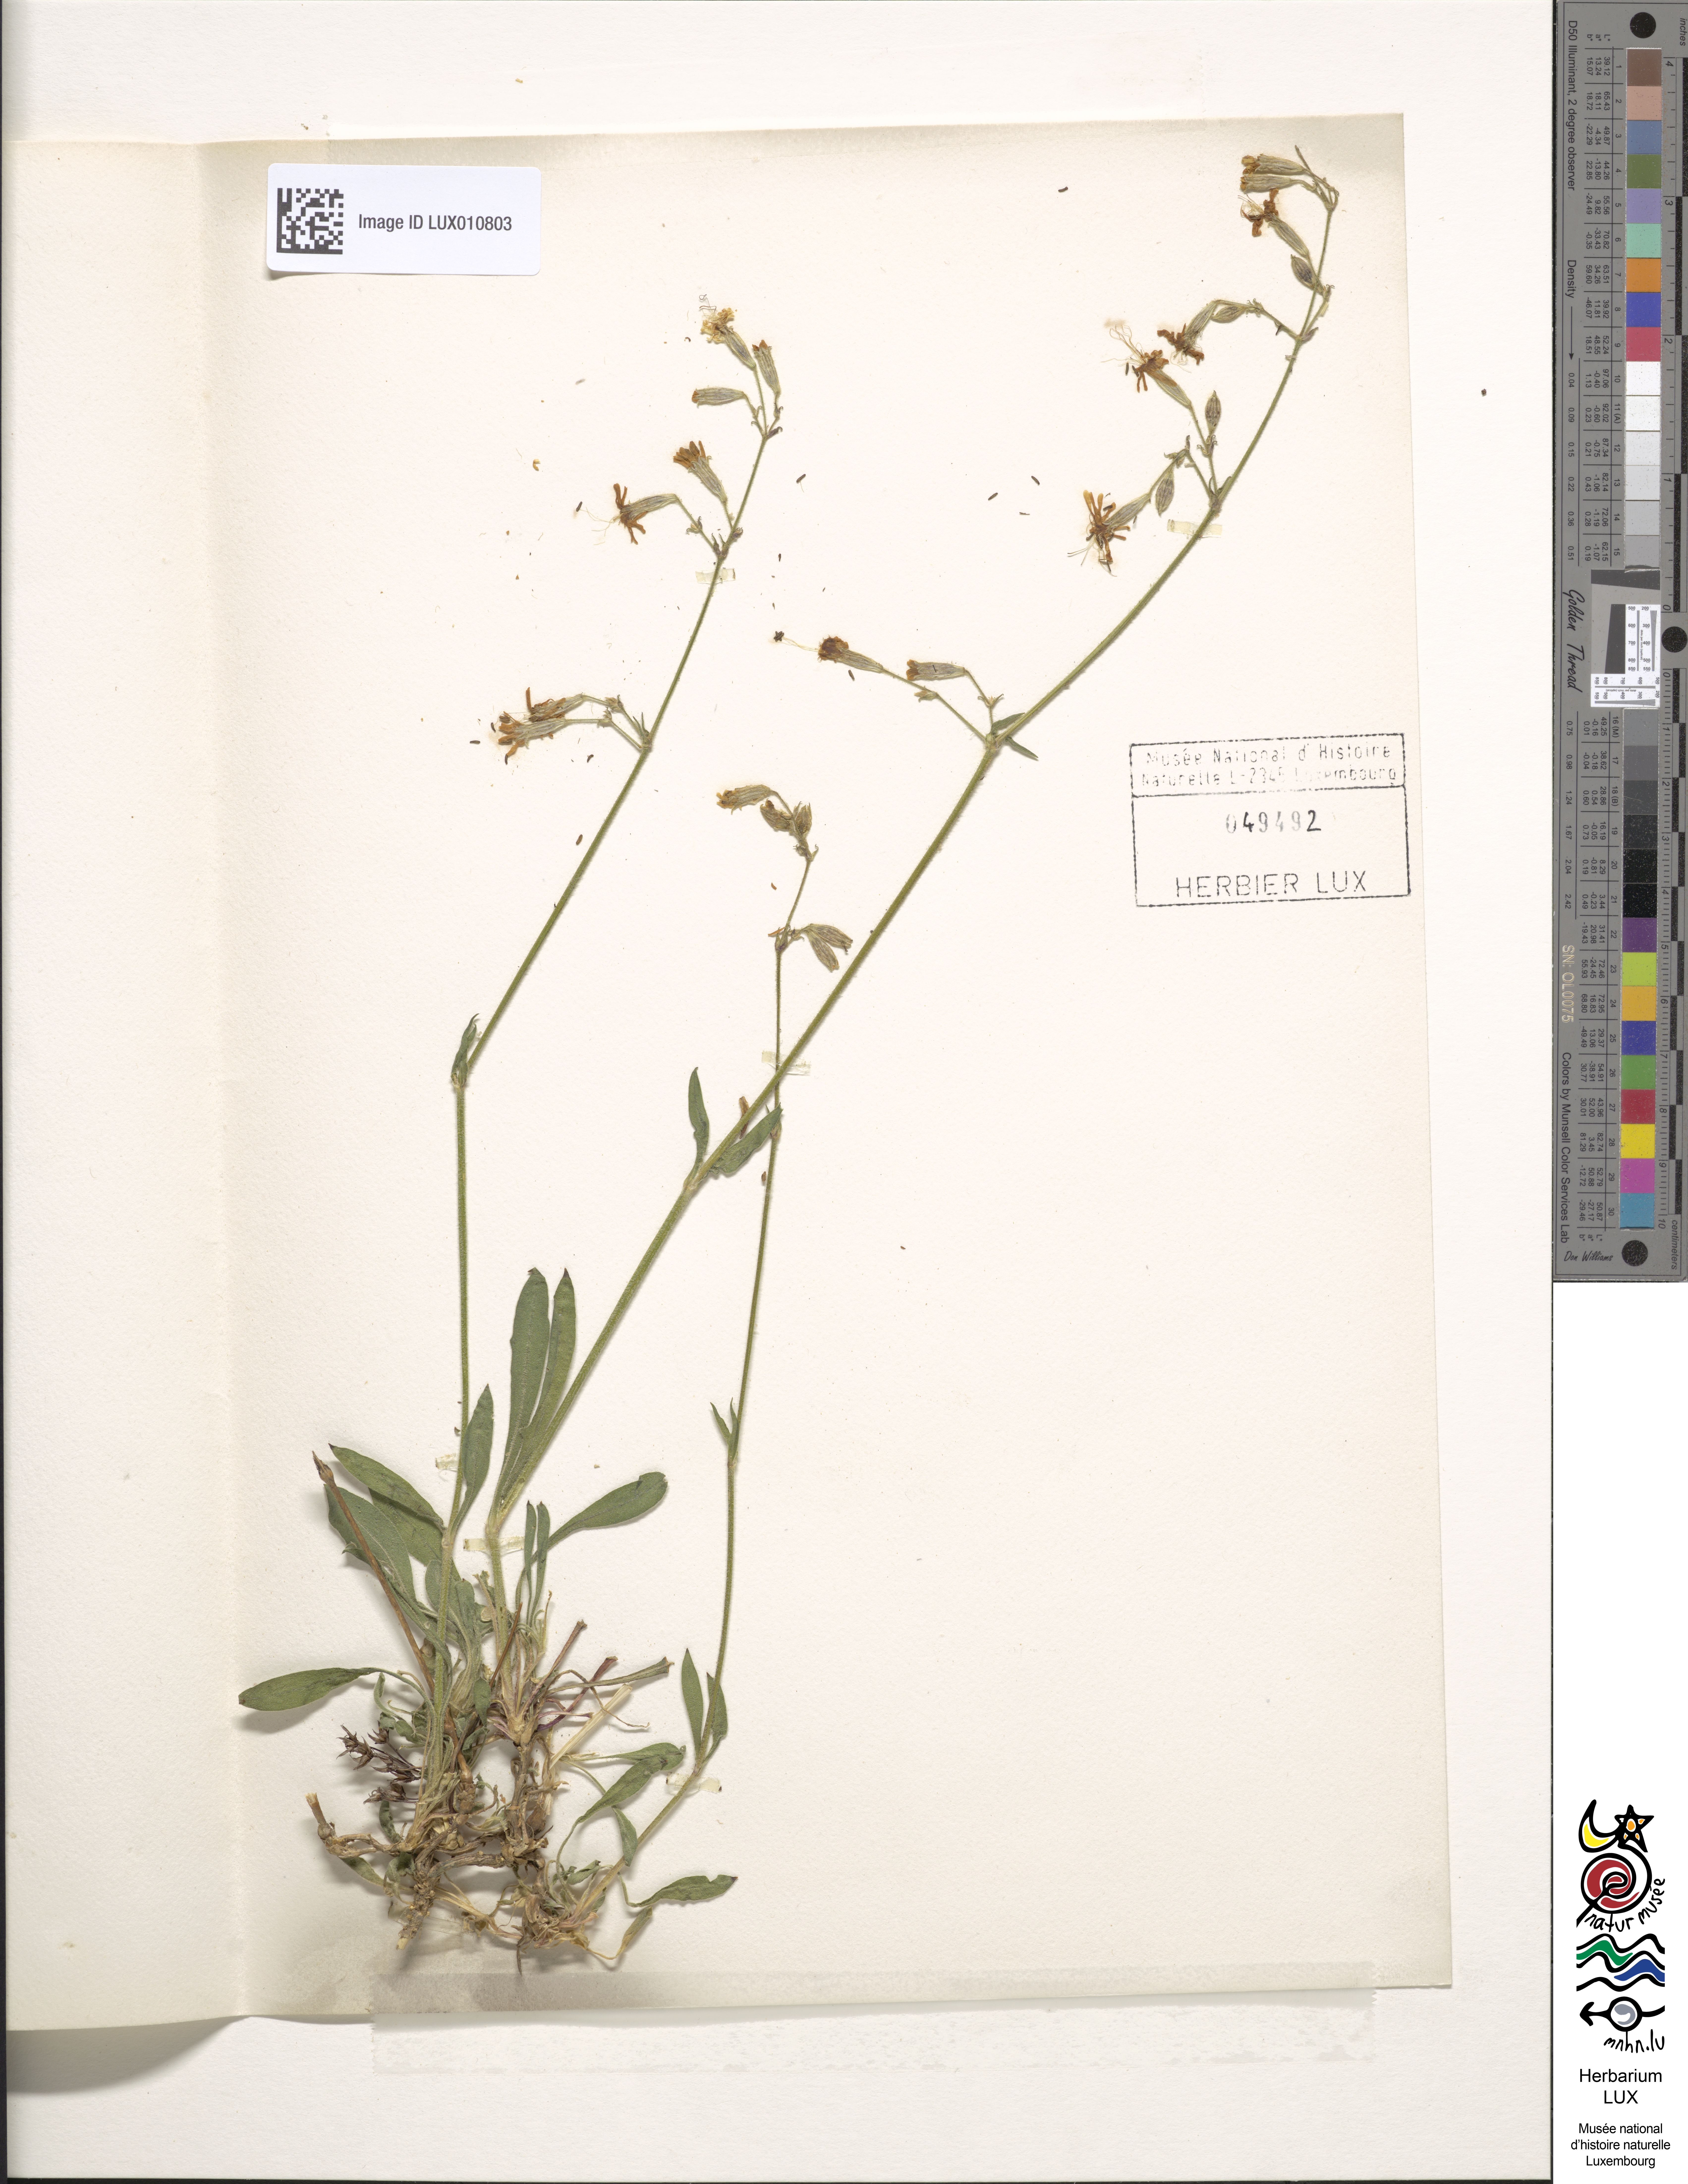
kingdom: Plantae
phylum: Tracheophyta
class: Magnoliopsida
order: Caryophyllales
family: Caryophyllaceae
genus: Silene
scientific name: Silene nutans
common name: Nottingham catchfly
